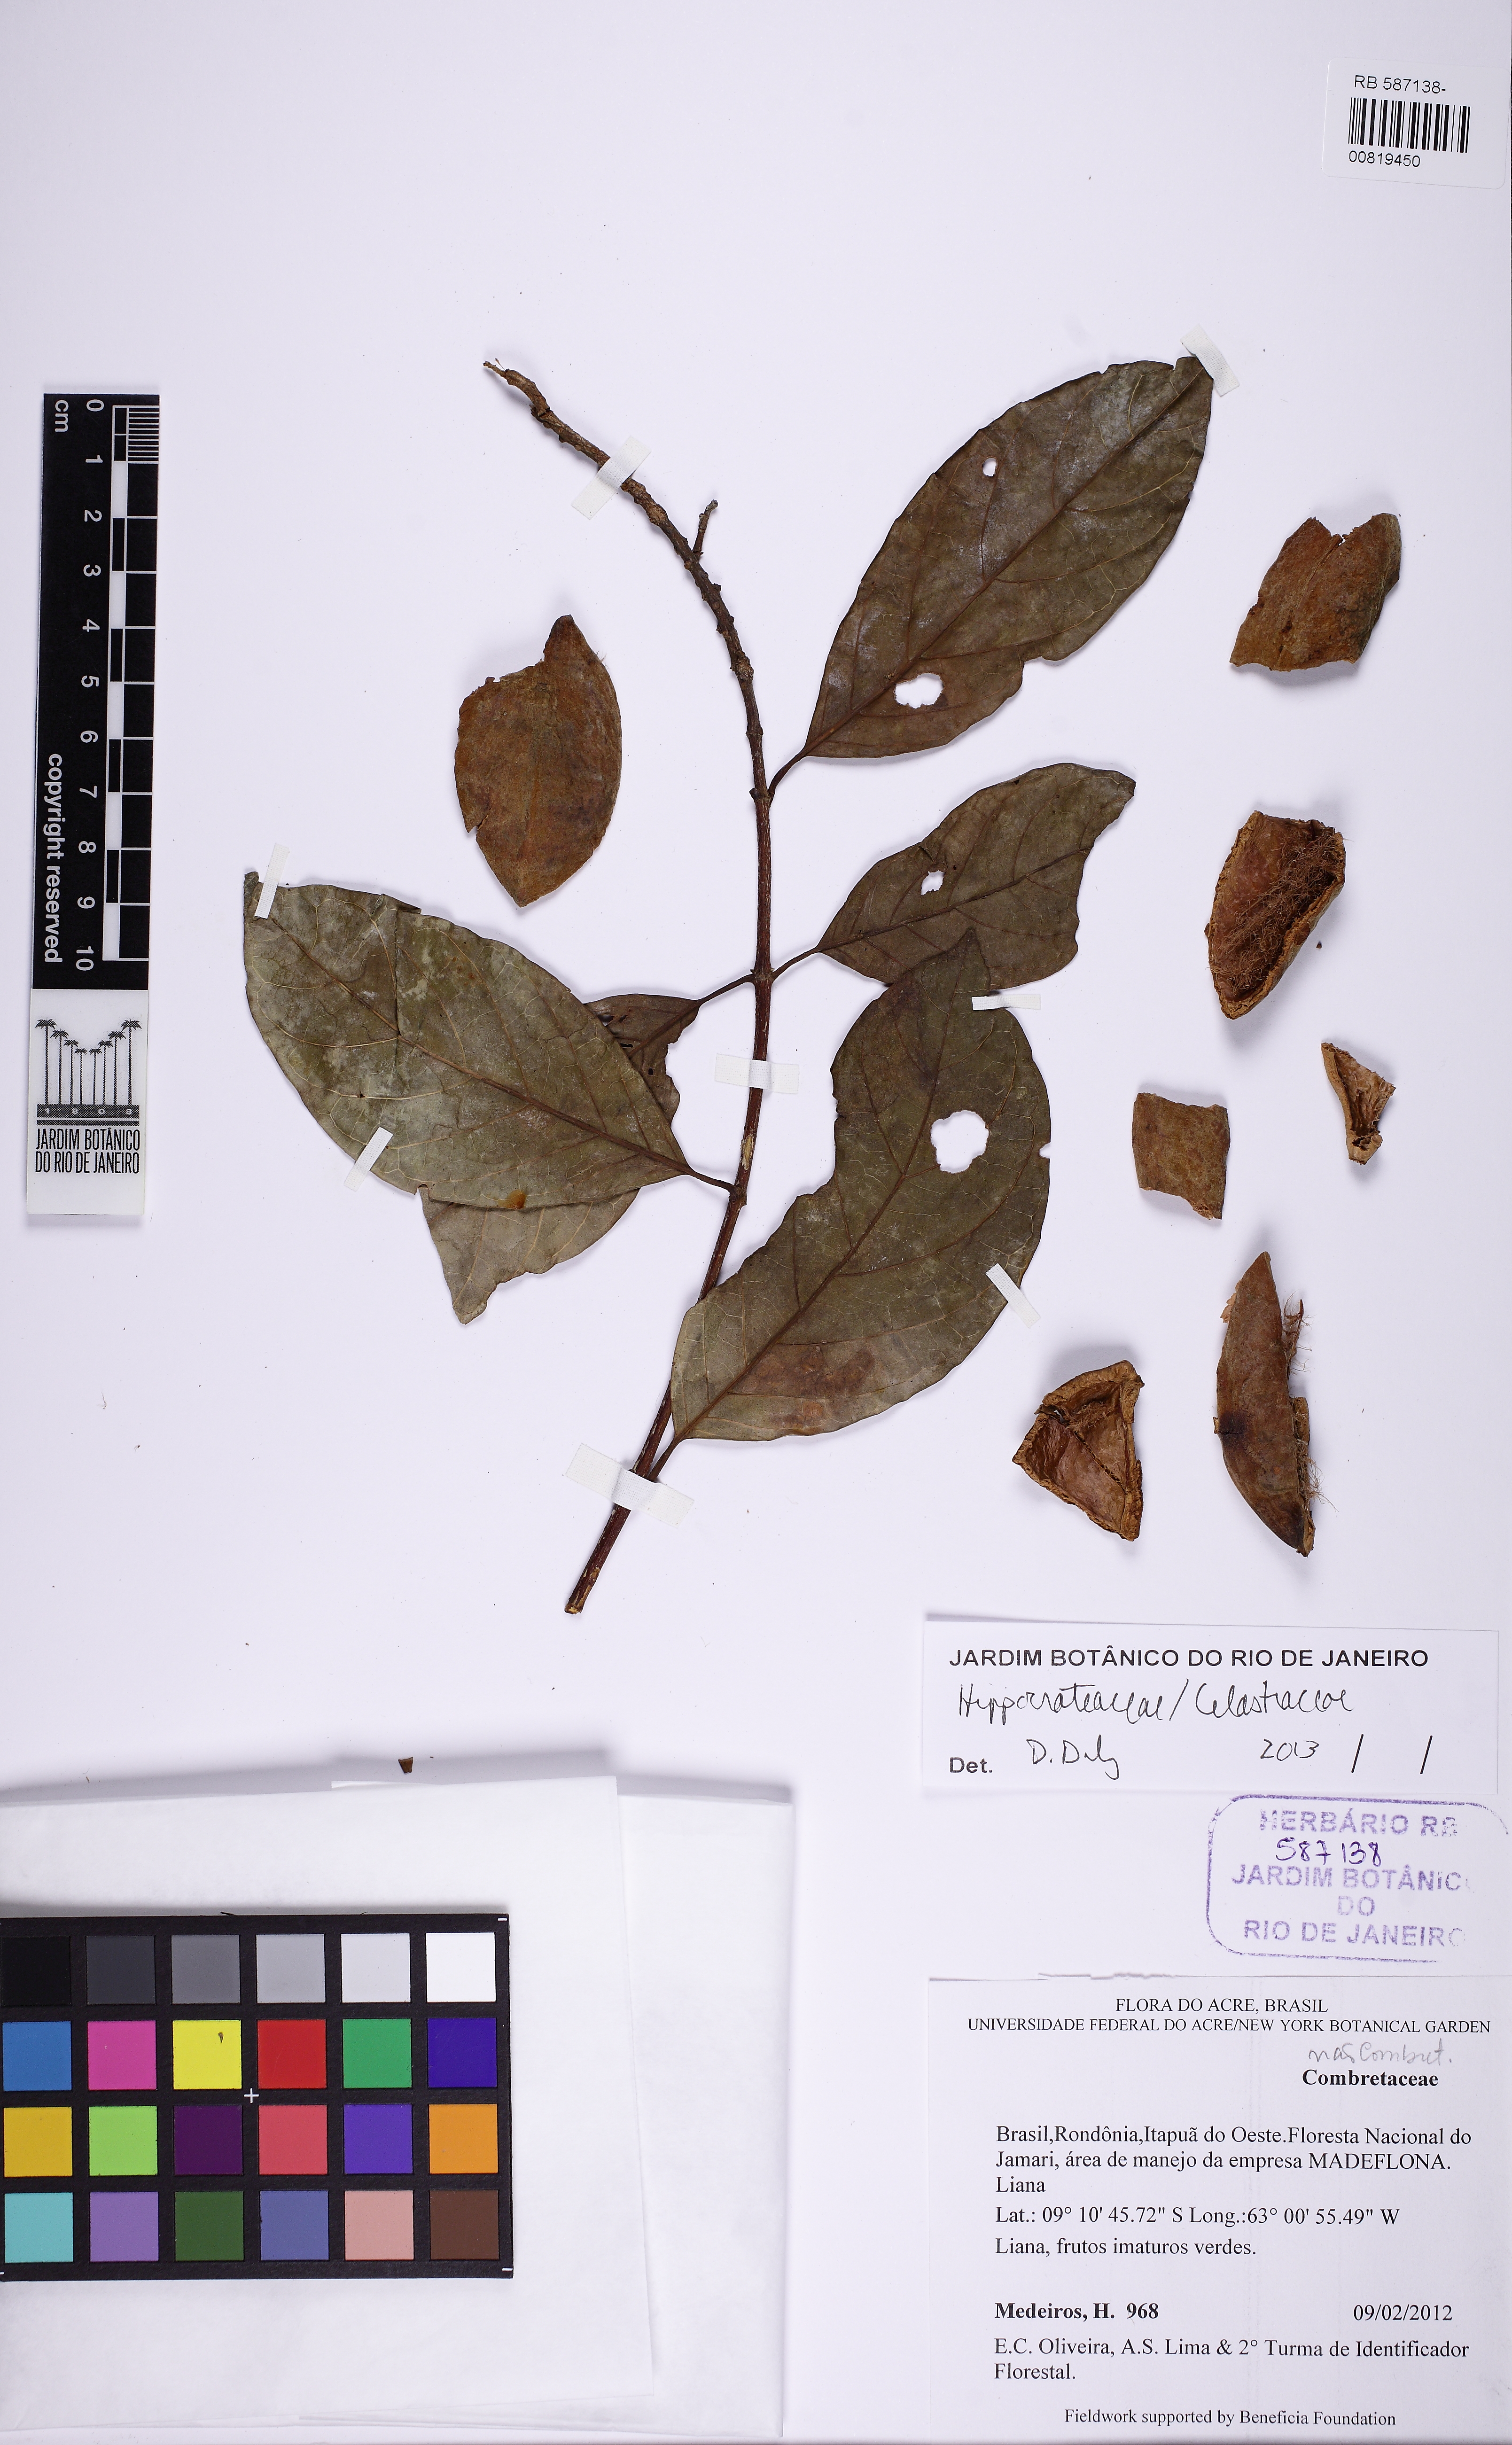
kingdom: Plantae
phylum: Tracheophyta
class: Magnoliopsida
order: Celastrales
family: Celastraceae
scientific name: Celastraceae
